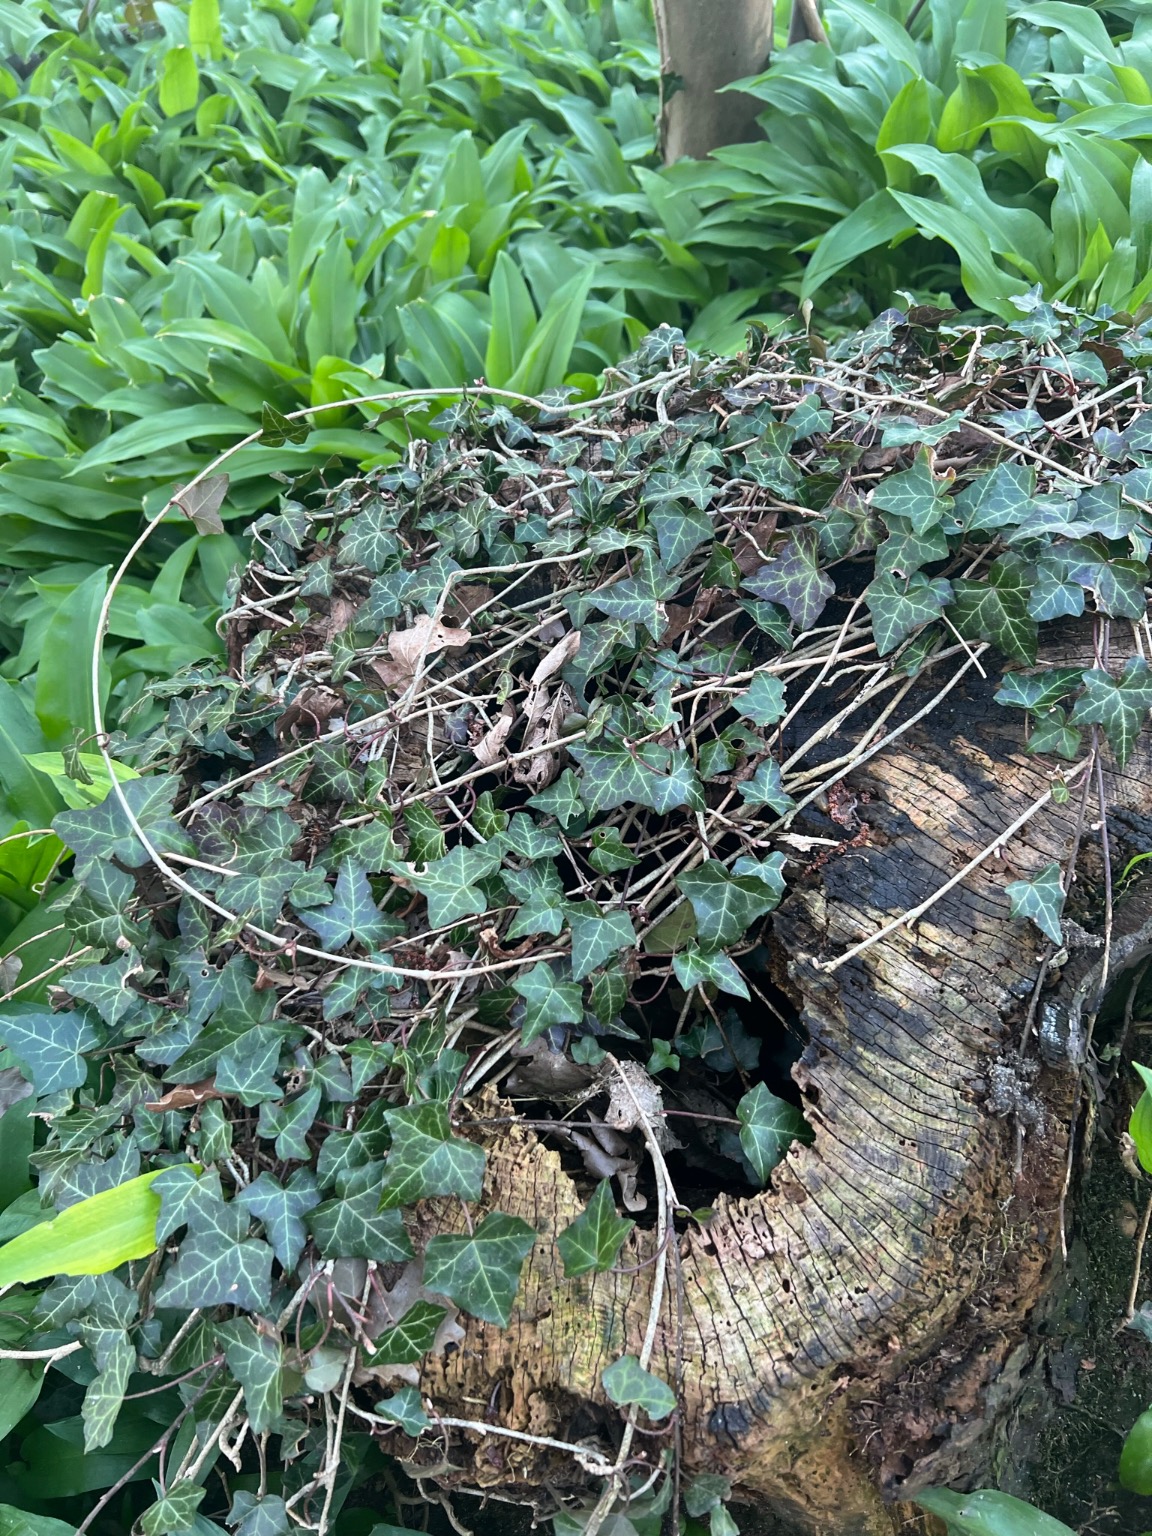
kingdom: Plantae
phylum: Tracheophyta
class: Magnoliopsida
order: Apiales
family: Araliaceae
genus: Hedera
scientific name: Hedera helix
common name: Vedbend
